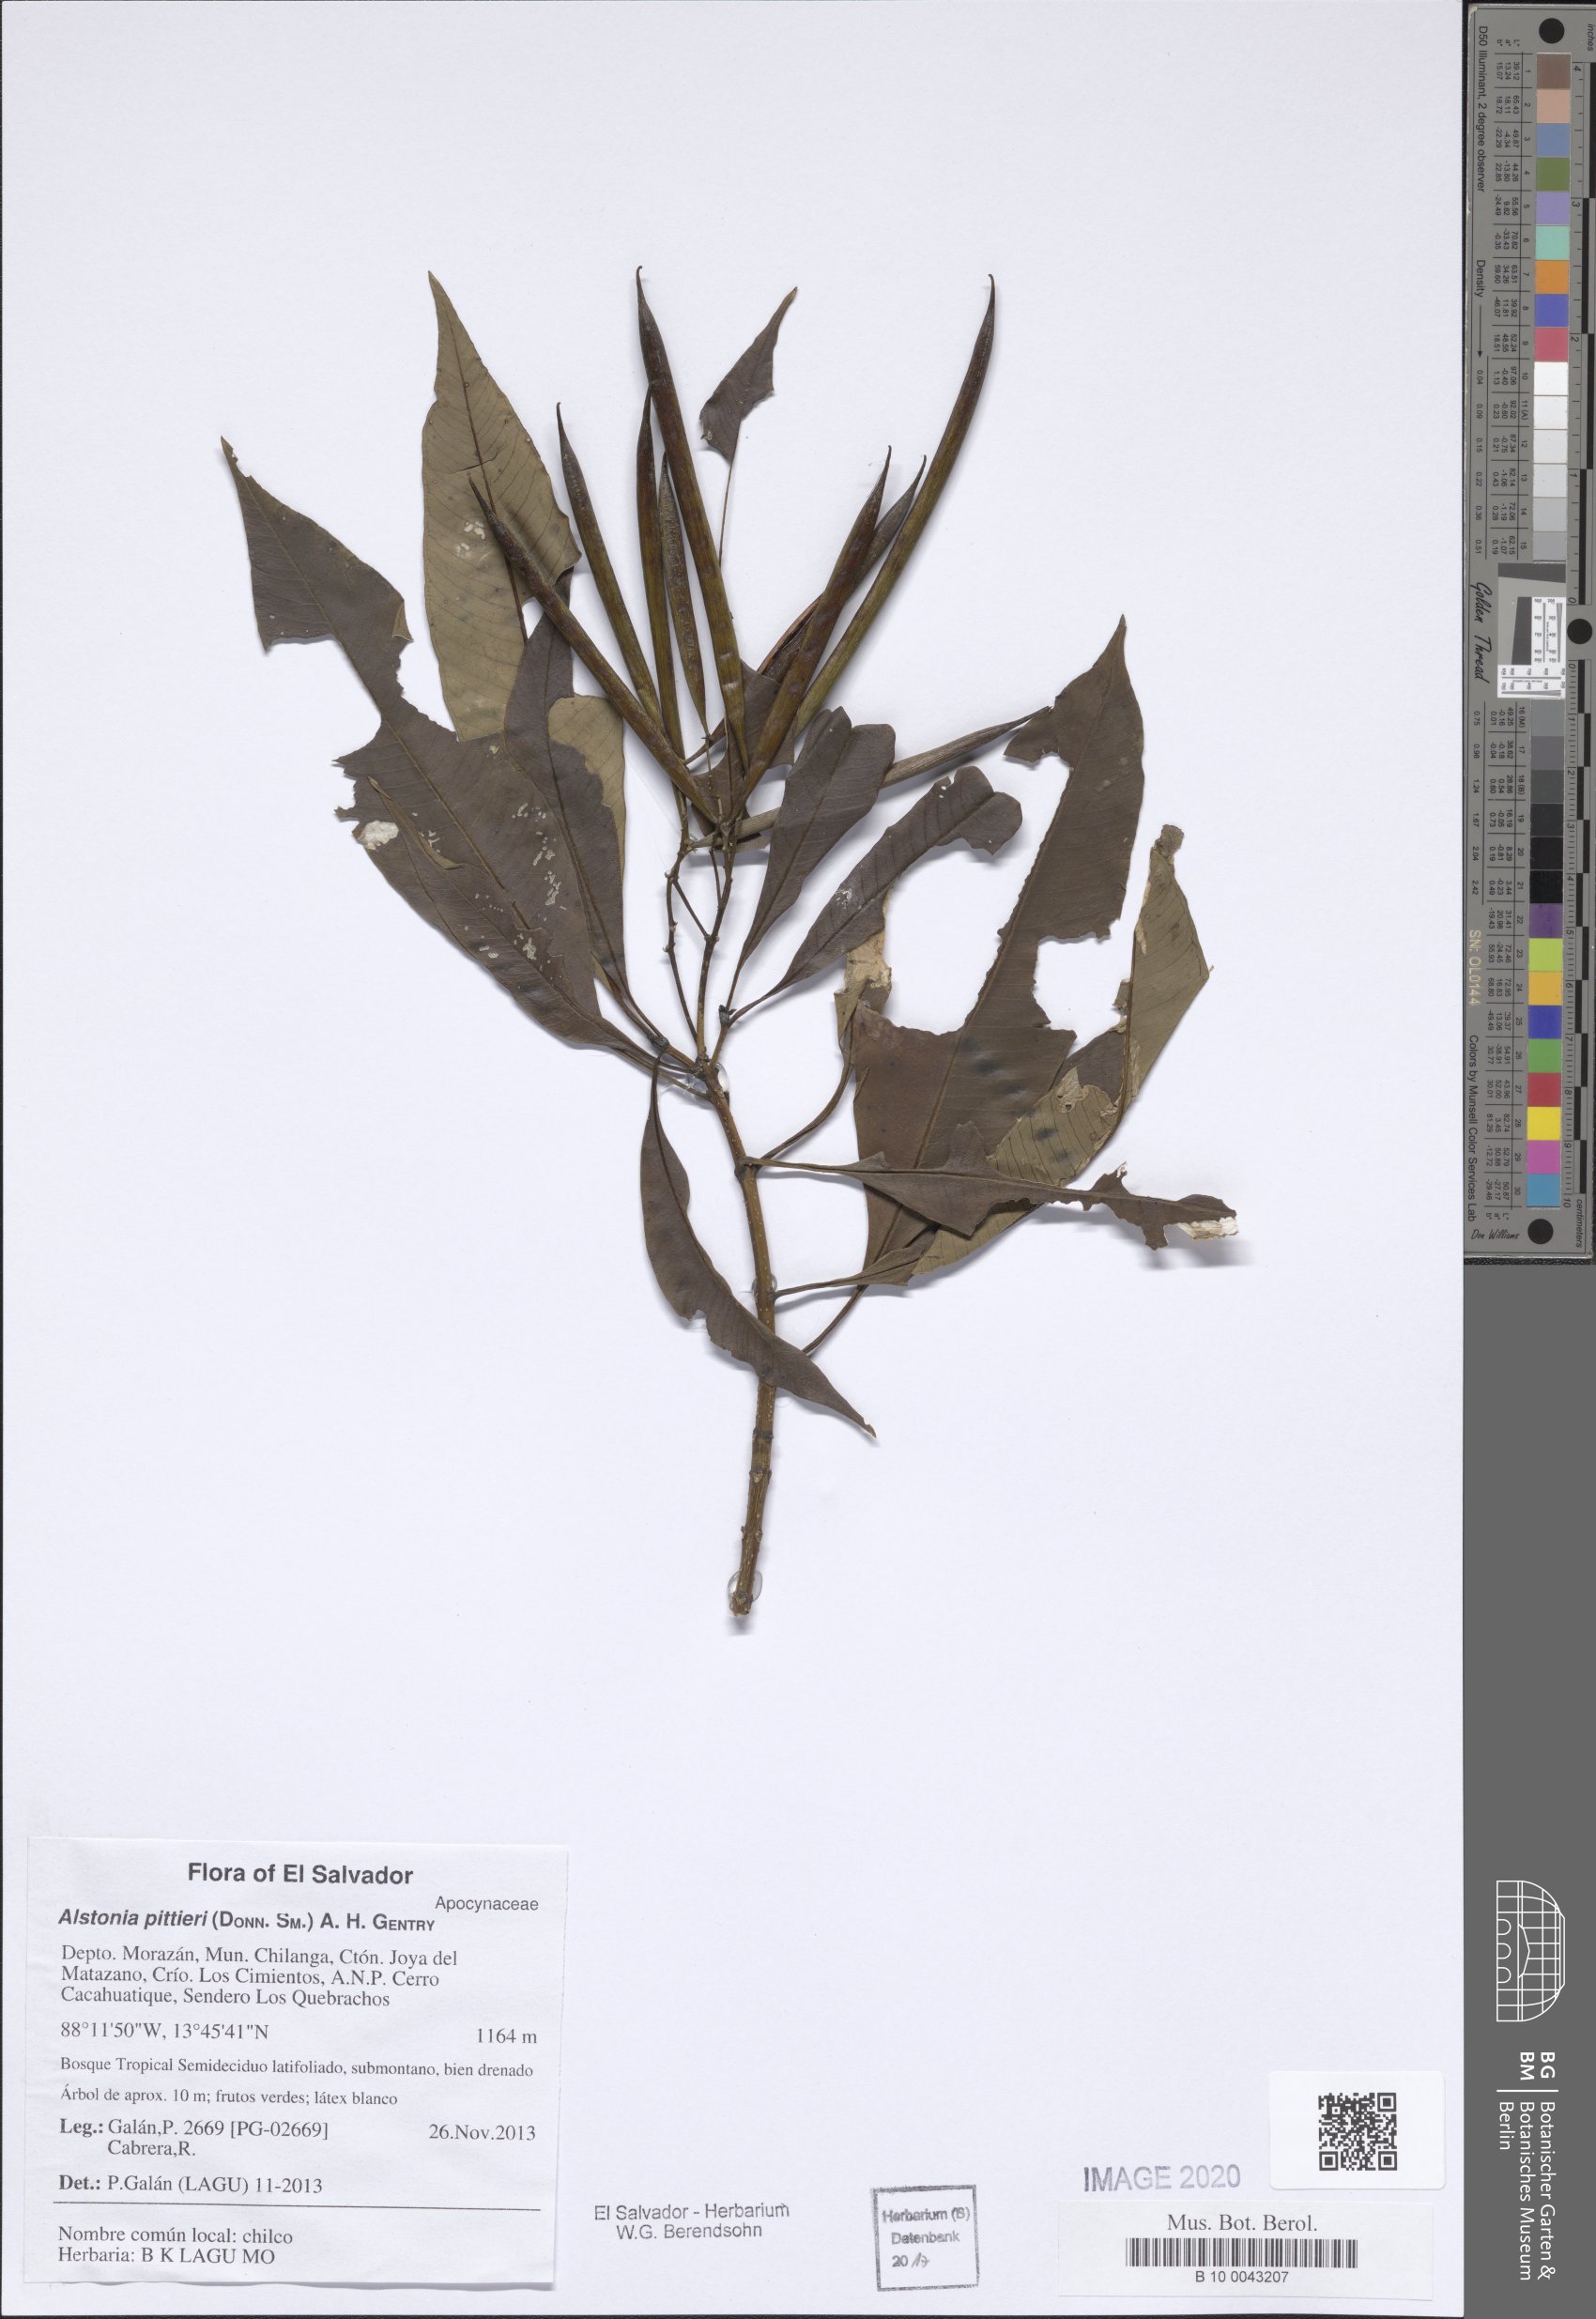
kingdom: Plantae
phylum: Tracheophyta
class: Magnoliopsida
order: Gentianales
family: Apocynaceae
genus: Tonduzia
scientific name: Tonduzia longifolia
